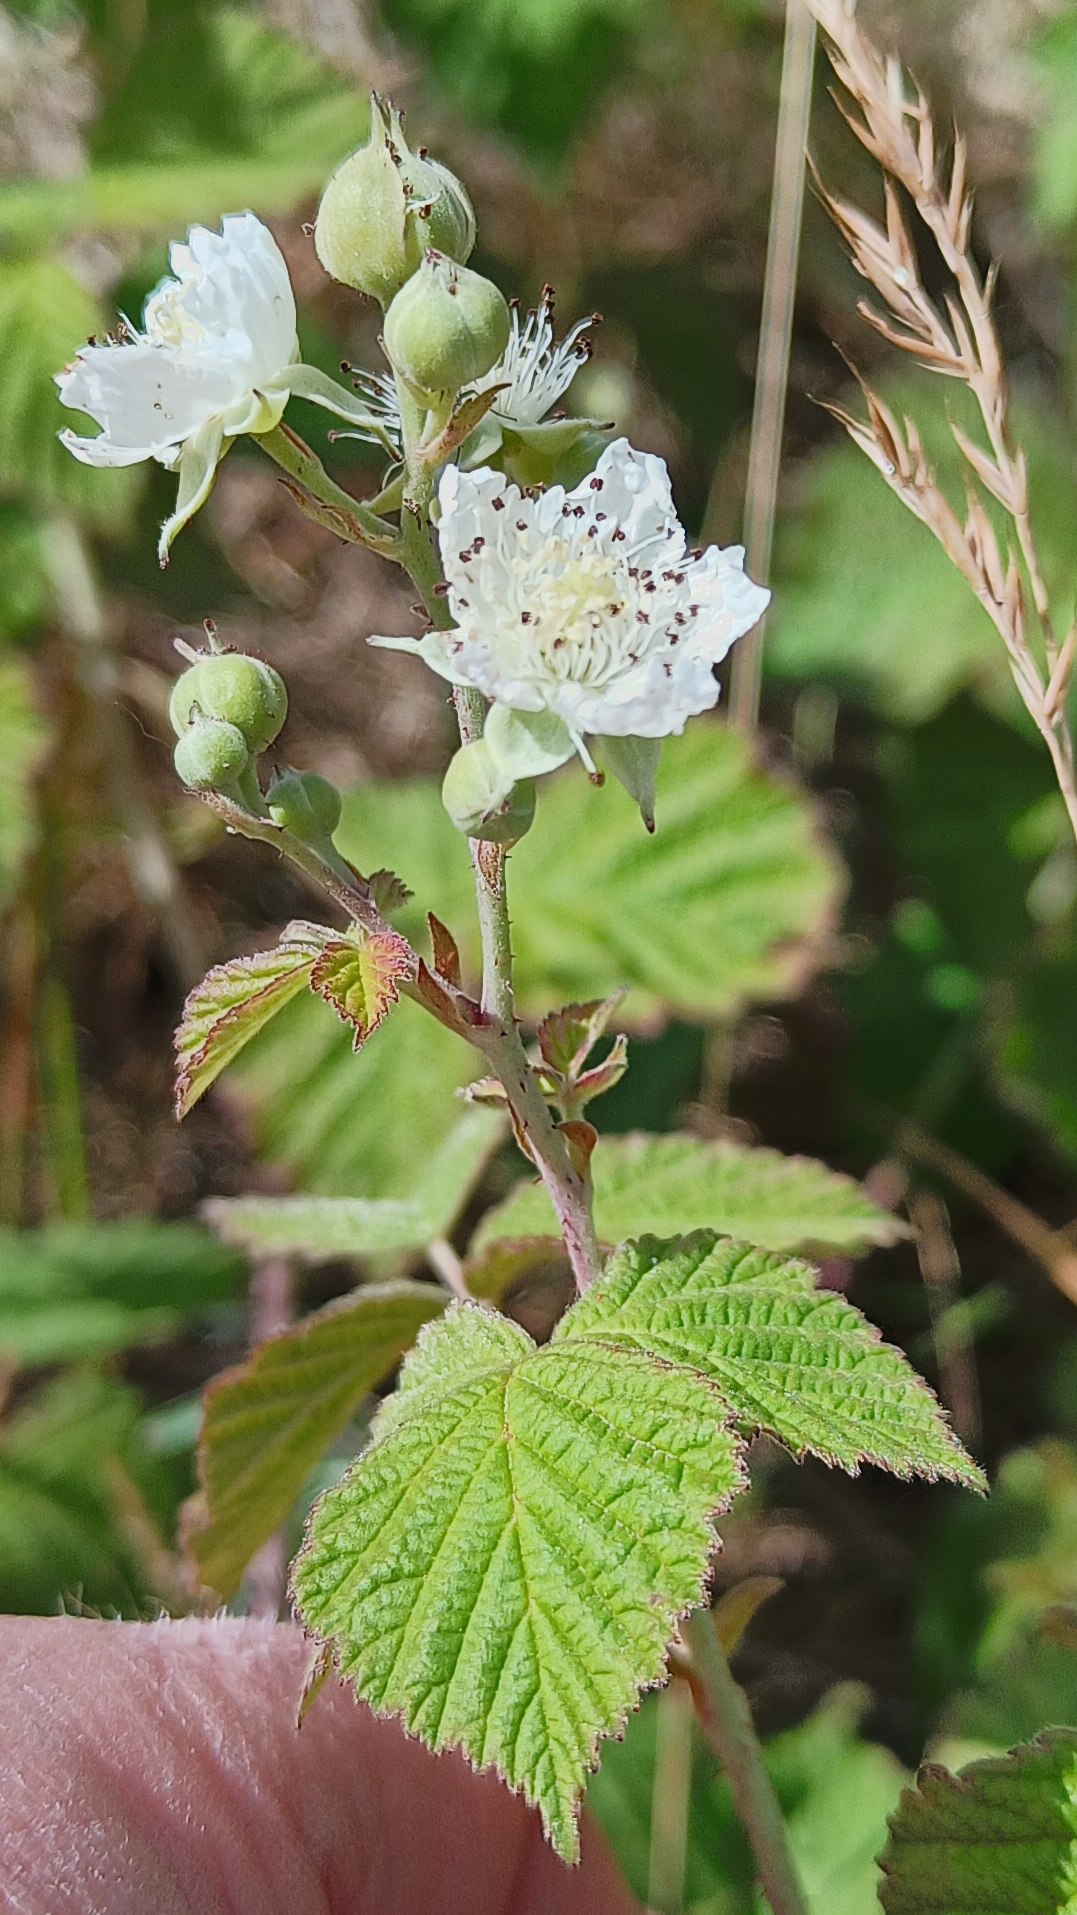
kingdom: Plantae
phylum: Tracheophyta
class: Magnoliopsida
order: Rosales
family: Rosaceae
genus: Rubus
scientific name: Rubus
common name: Klyngerslægten
